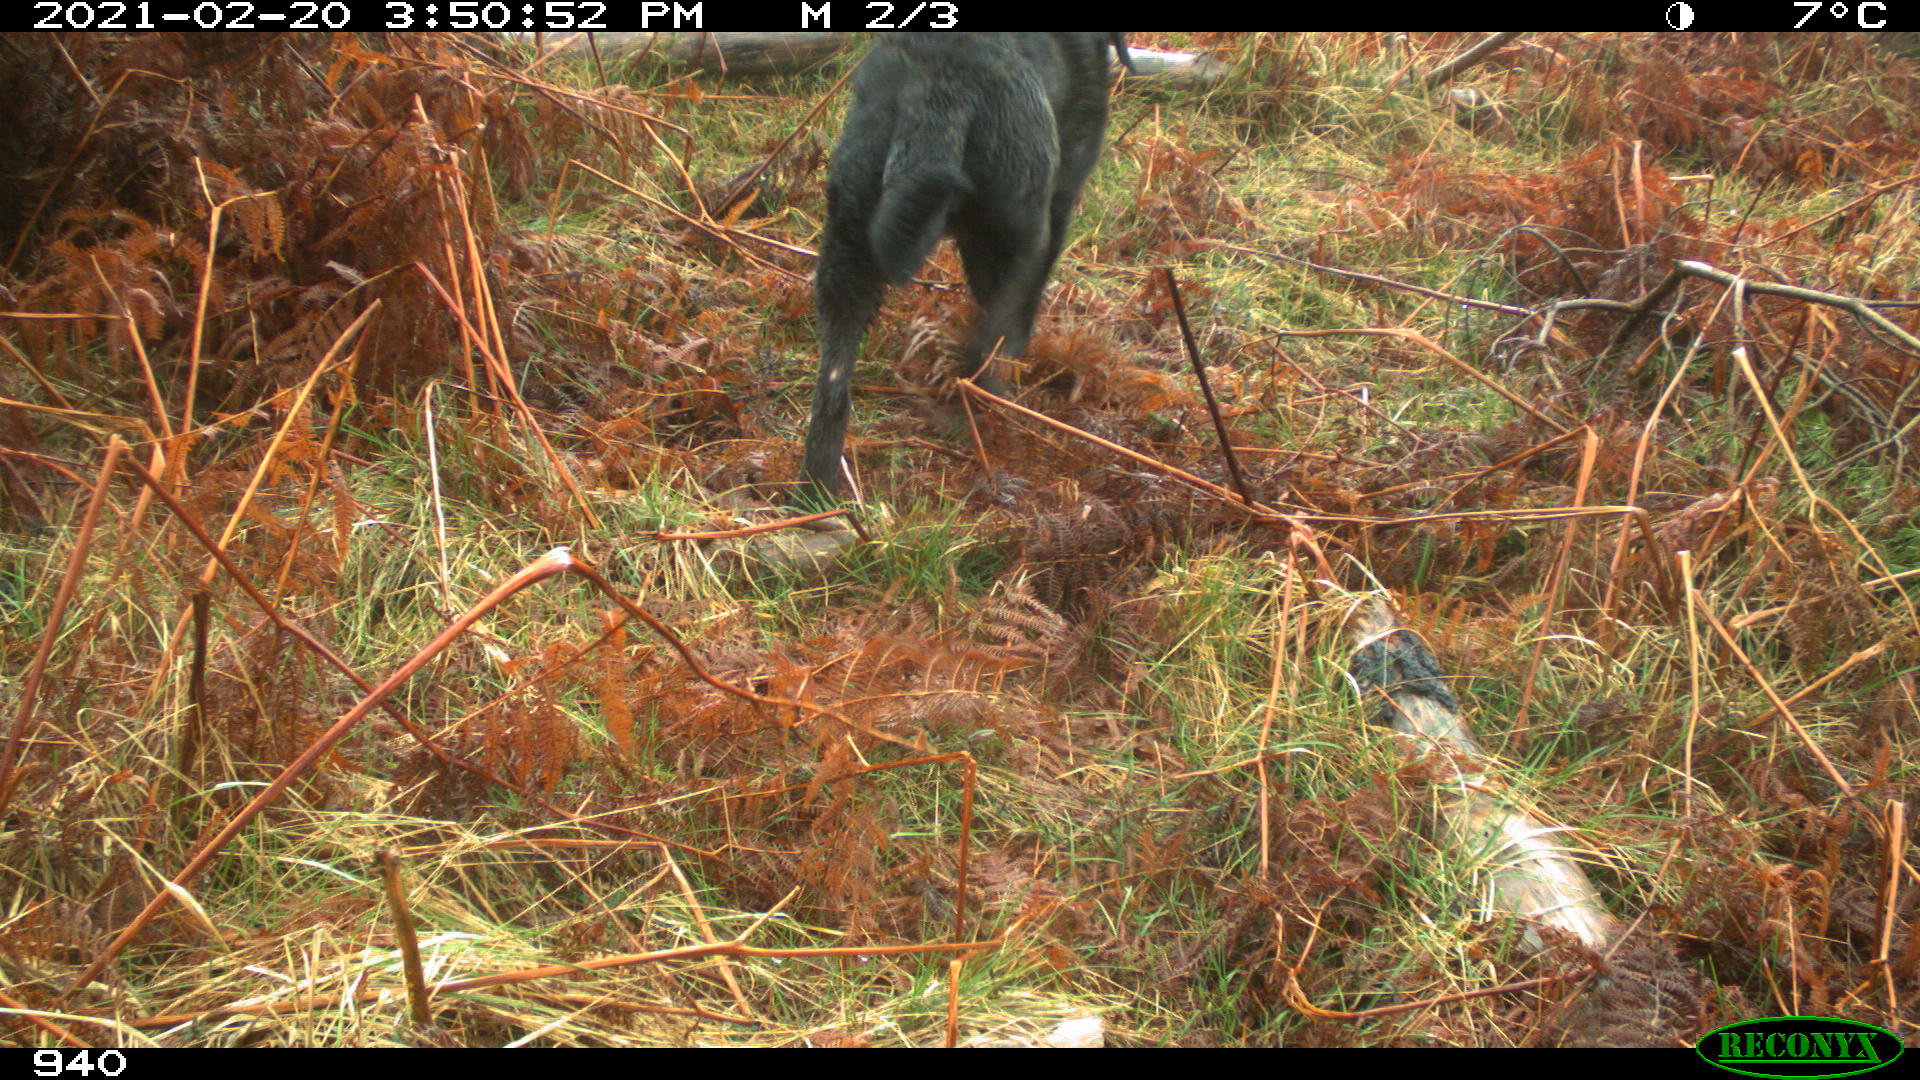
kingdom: Animalia
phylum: Chordata
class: Mammalia
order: Carnivora
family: Canidae
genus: Canis
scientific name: Canis lupus
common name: Gray wolf
